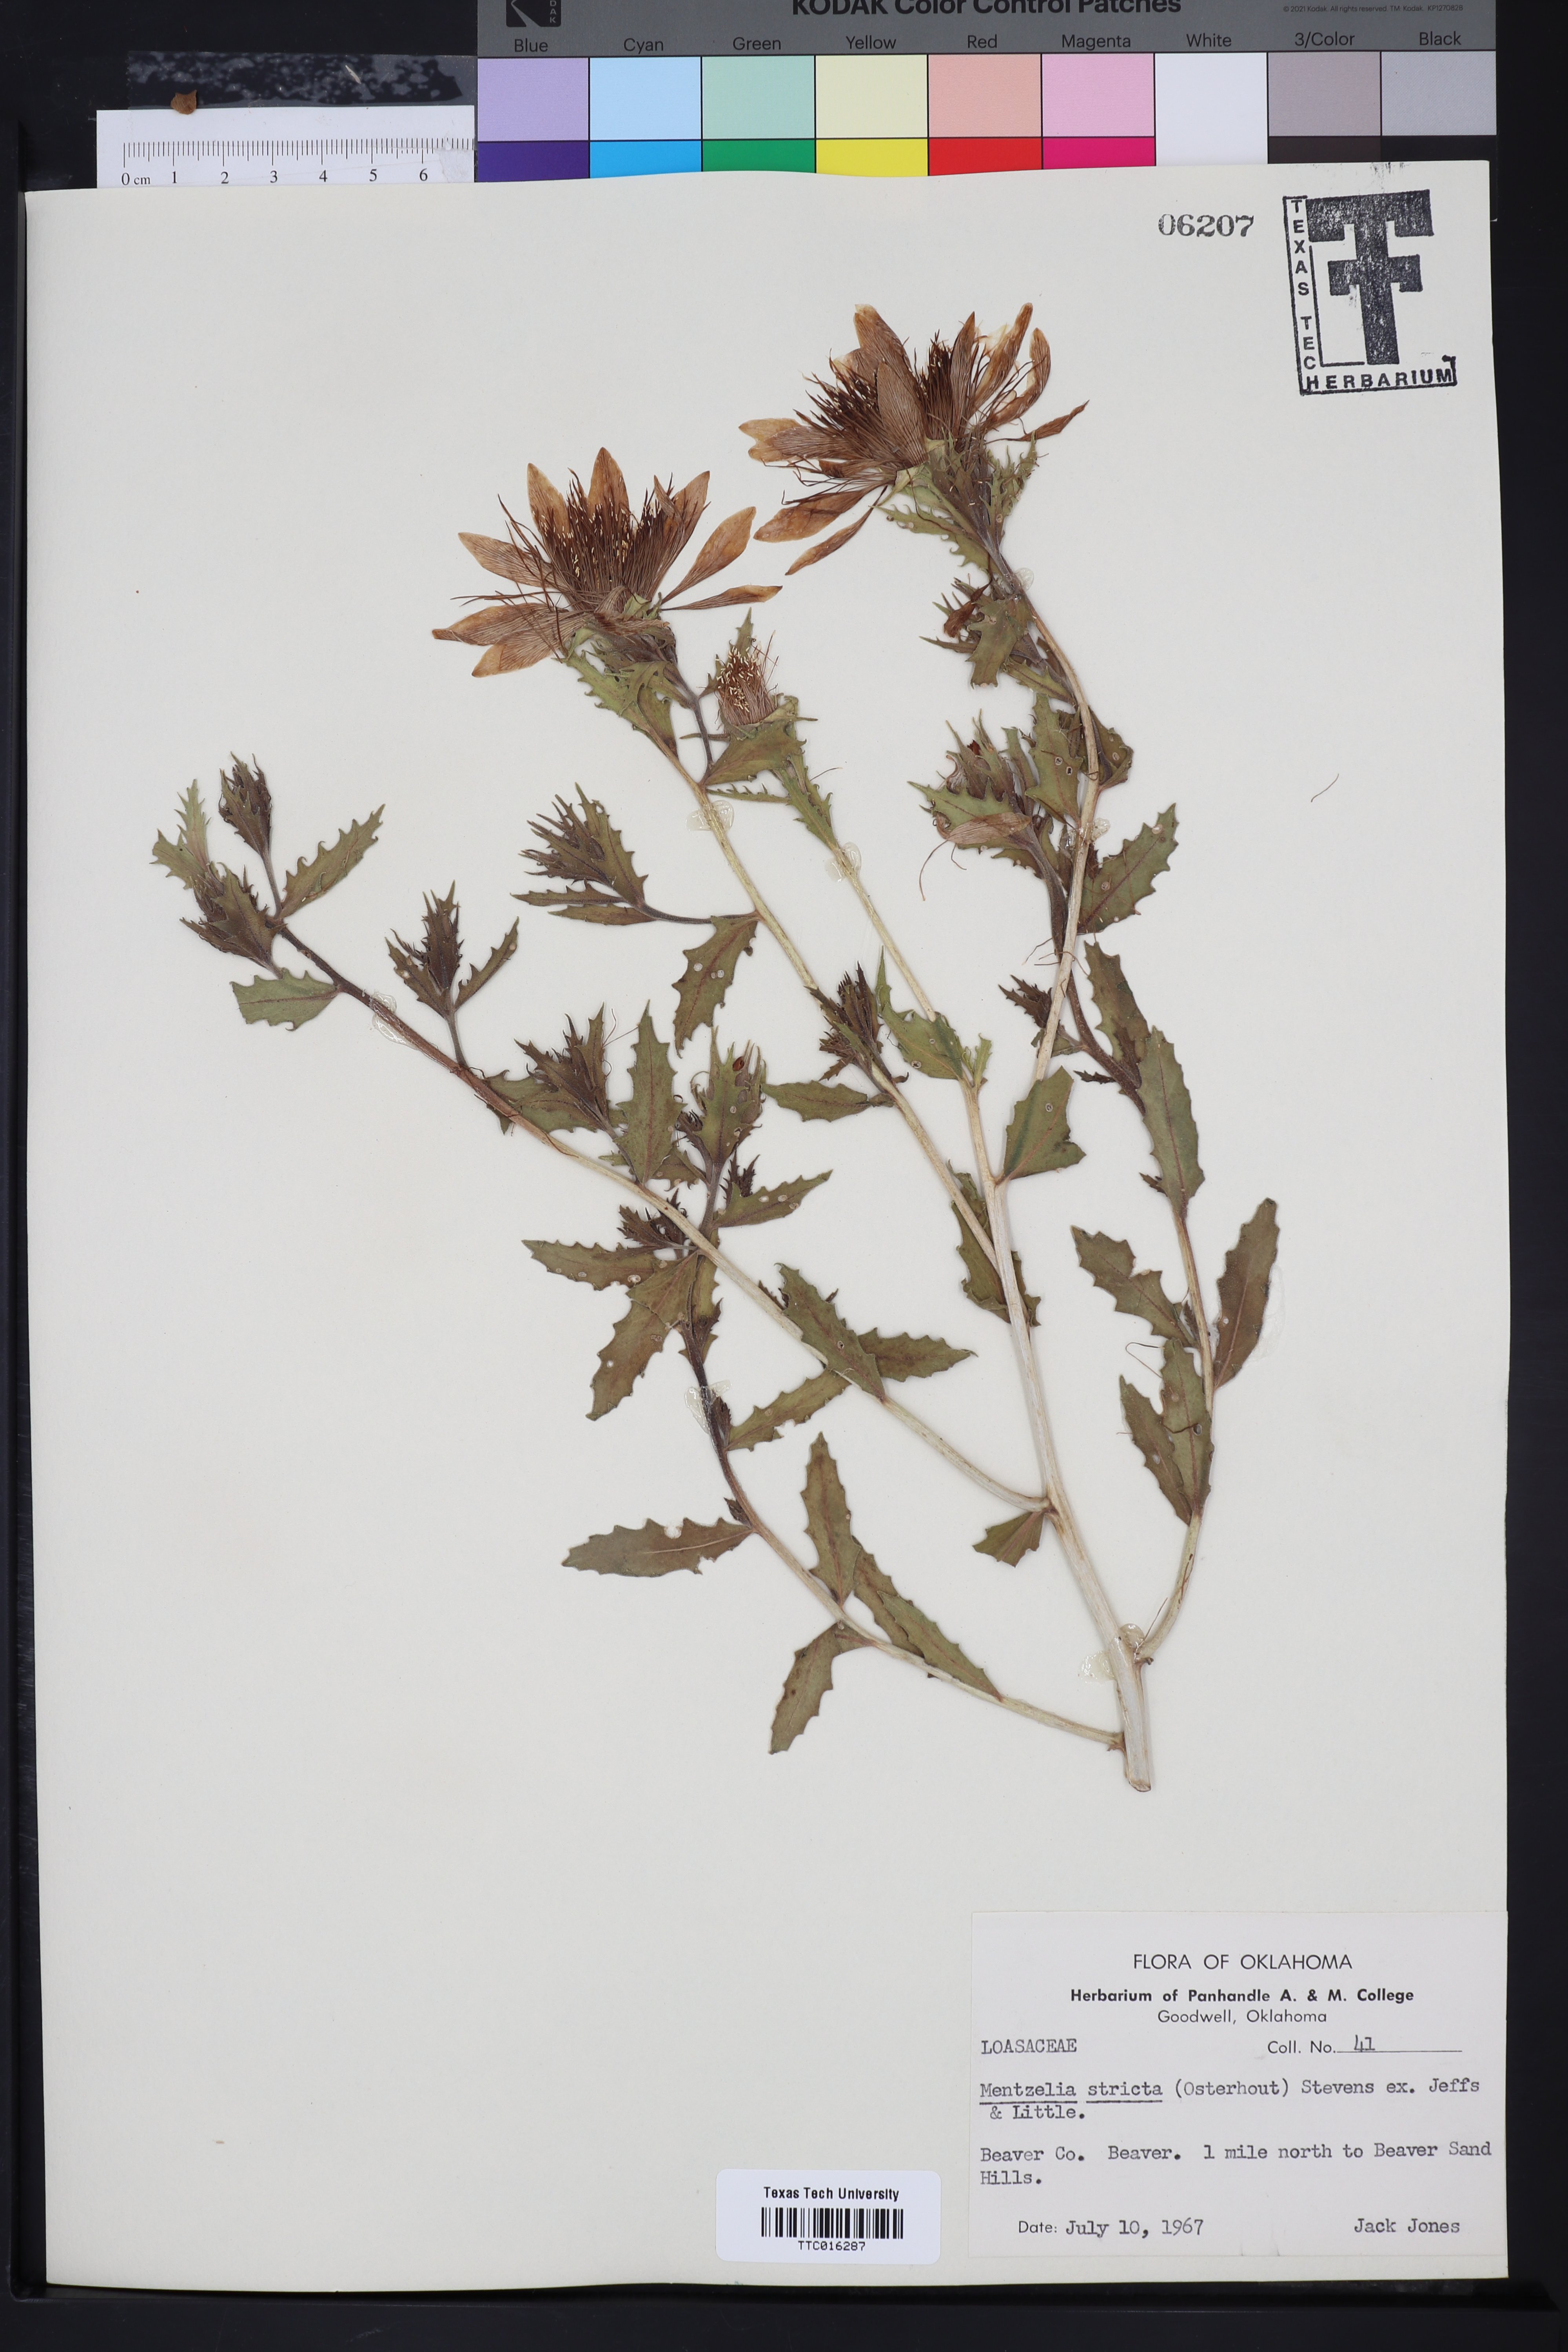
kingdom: Plantae
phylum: Tracheophyta
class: Magnoliopsida
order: Cornales
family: Loasaceae
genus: Mentzelia
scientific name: Mentzelia nuda
